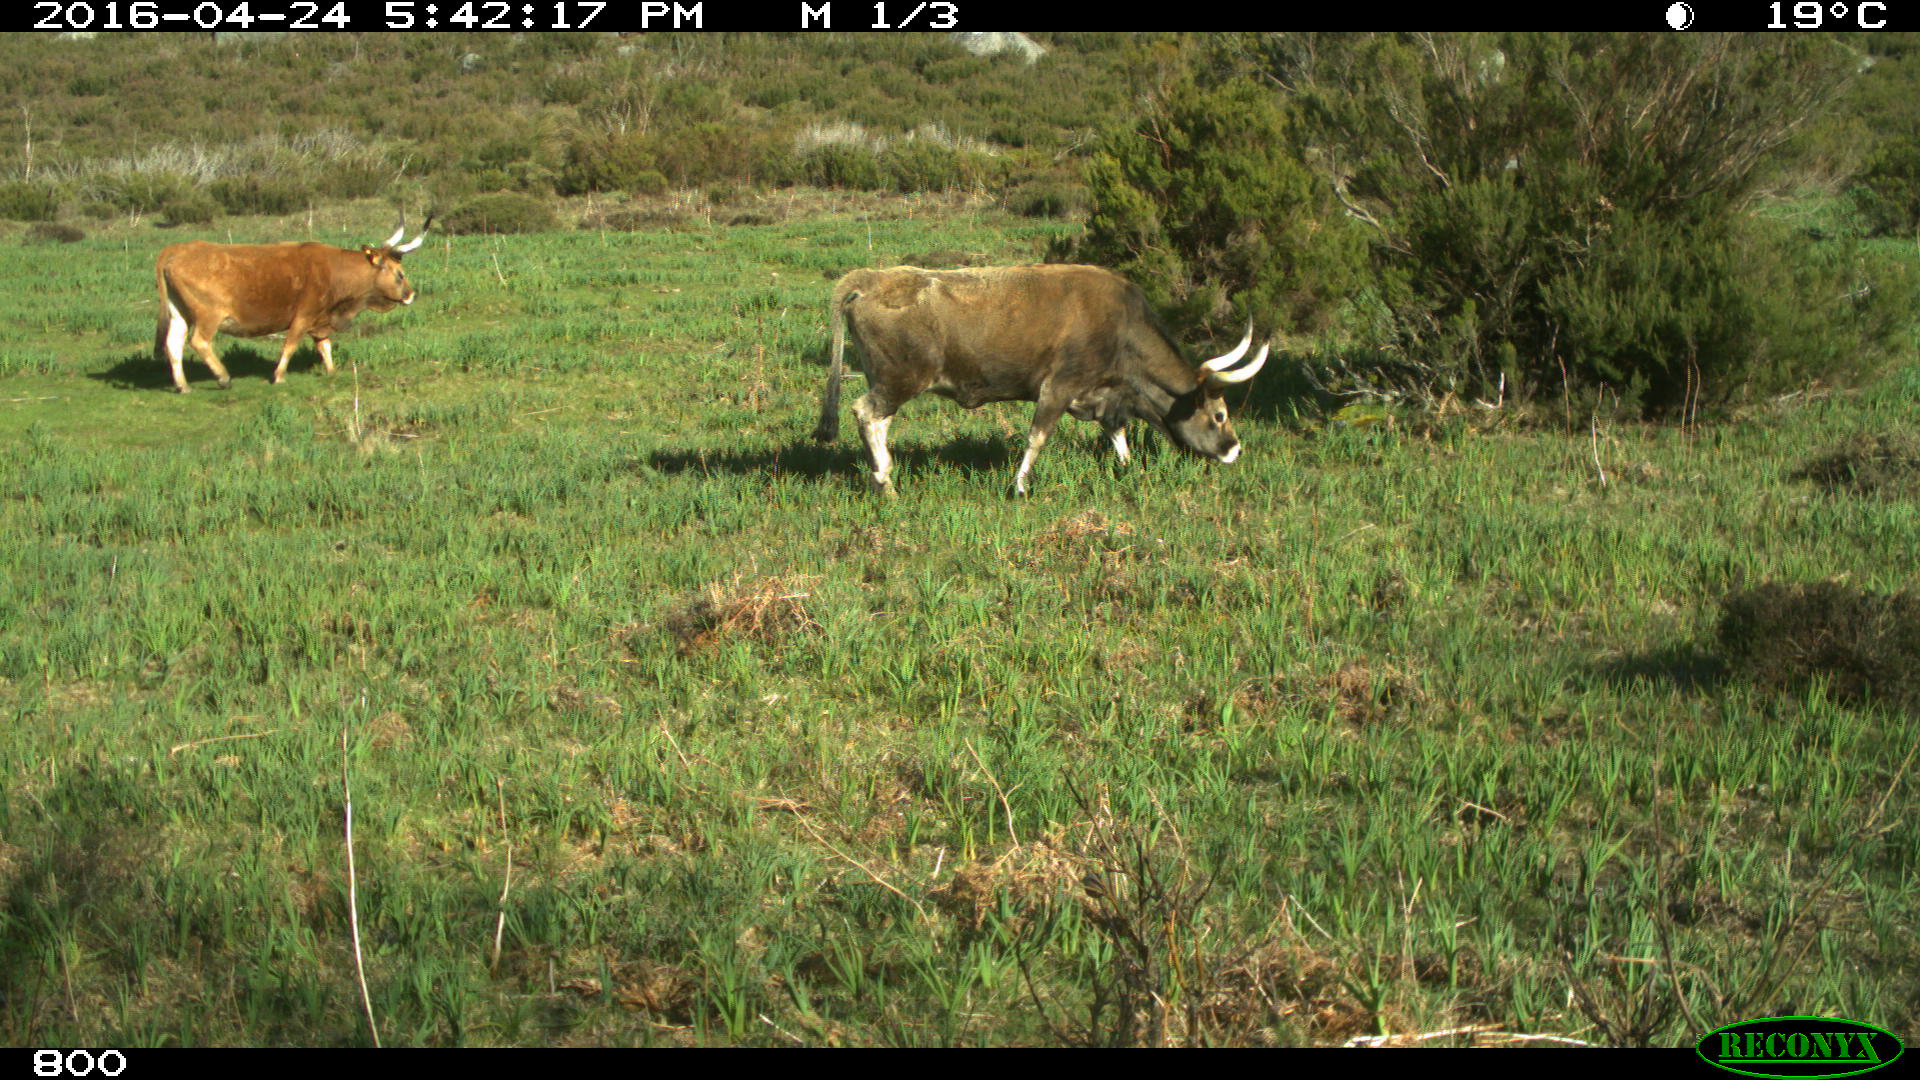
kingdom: Animalia
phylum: Chordata
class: Mammalia
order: Artiodactyla
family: Bovidae
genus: Bos
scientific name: Bos taurus
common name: Domesticated cattle
